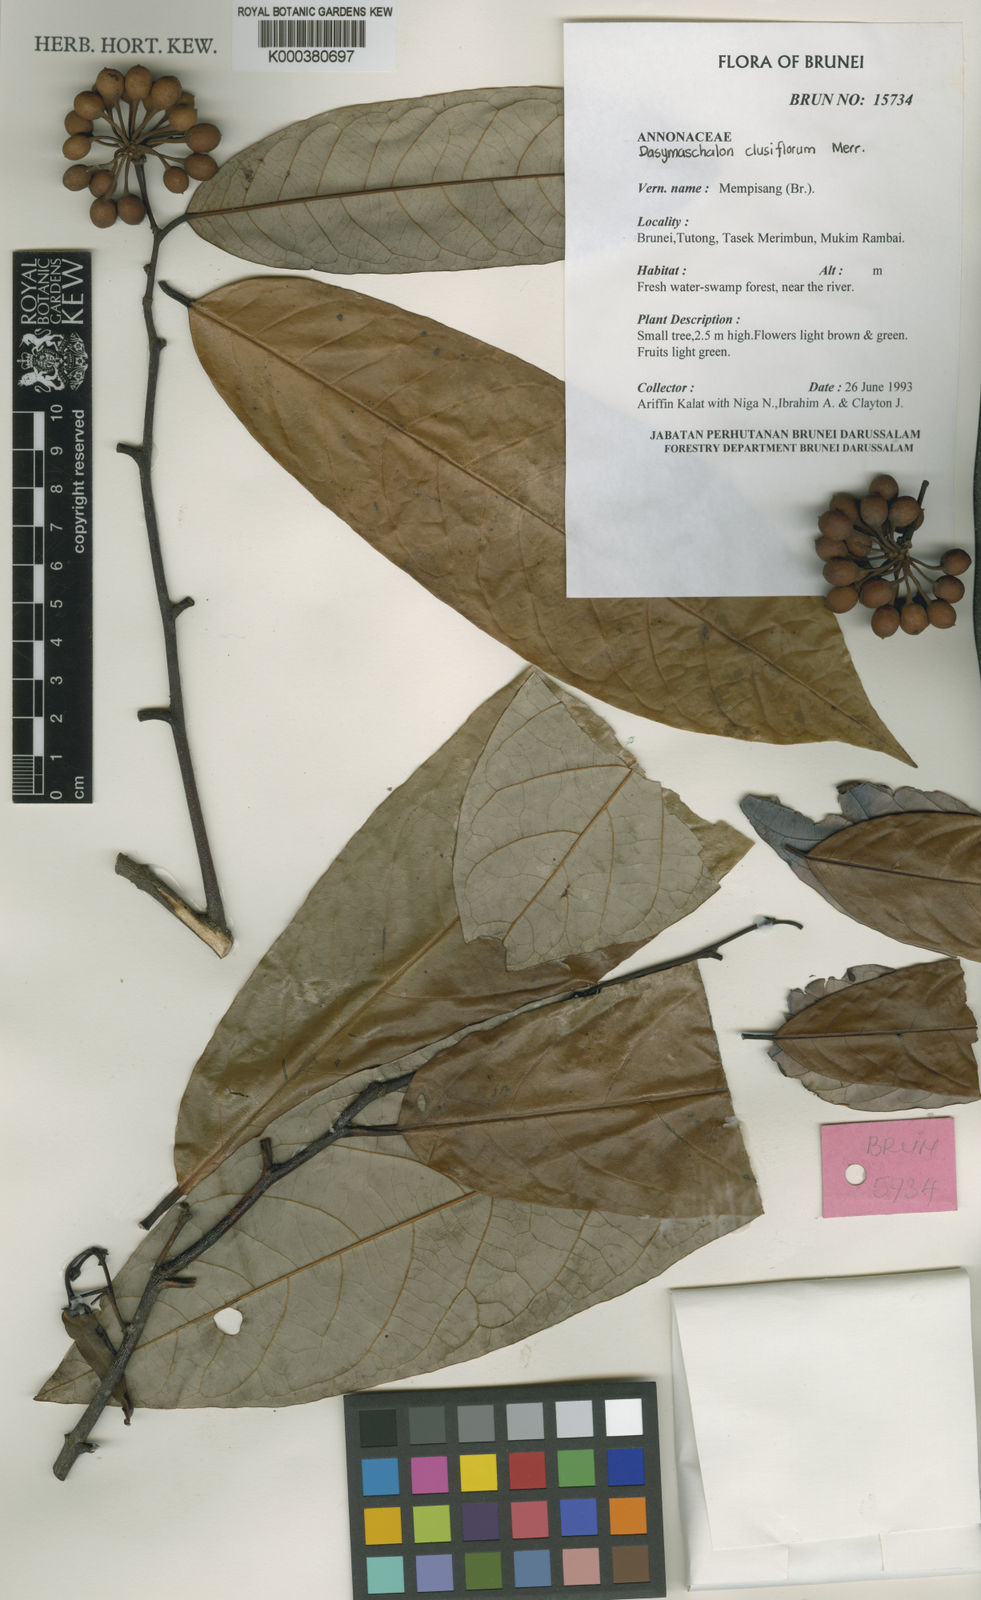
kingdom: Plantae
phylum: Tracheophyta
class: Magnoliopsida
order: Magnoliales
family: Annonaceae
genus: Dasymaschalon
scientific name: Dasymaschalon ellipticum
